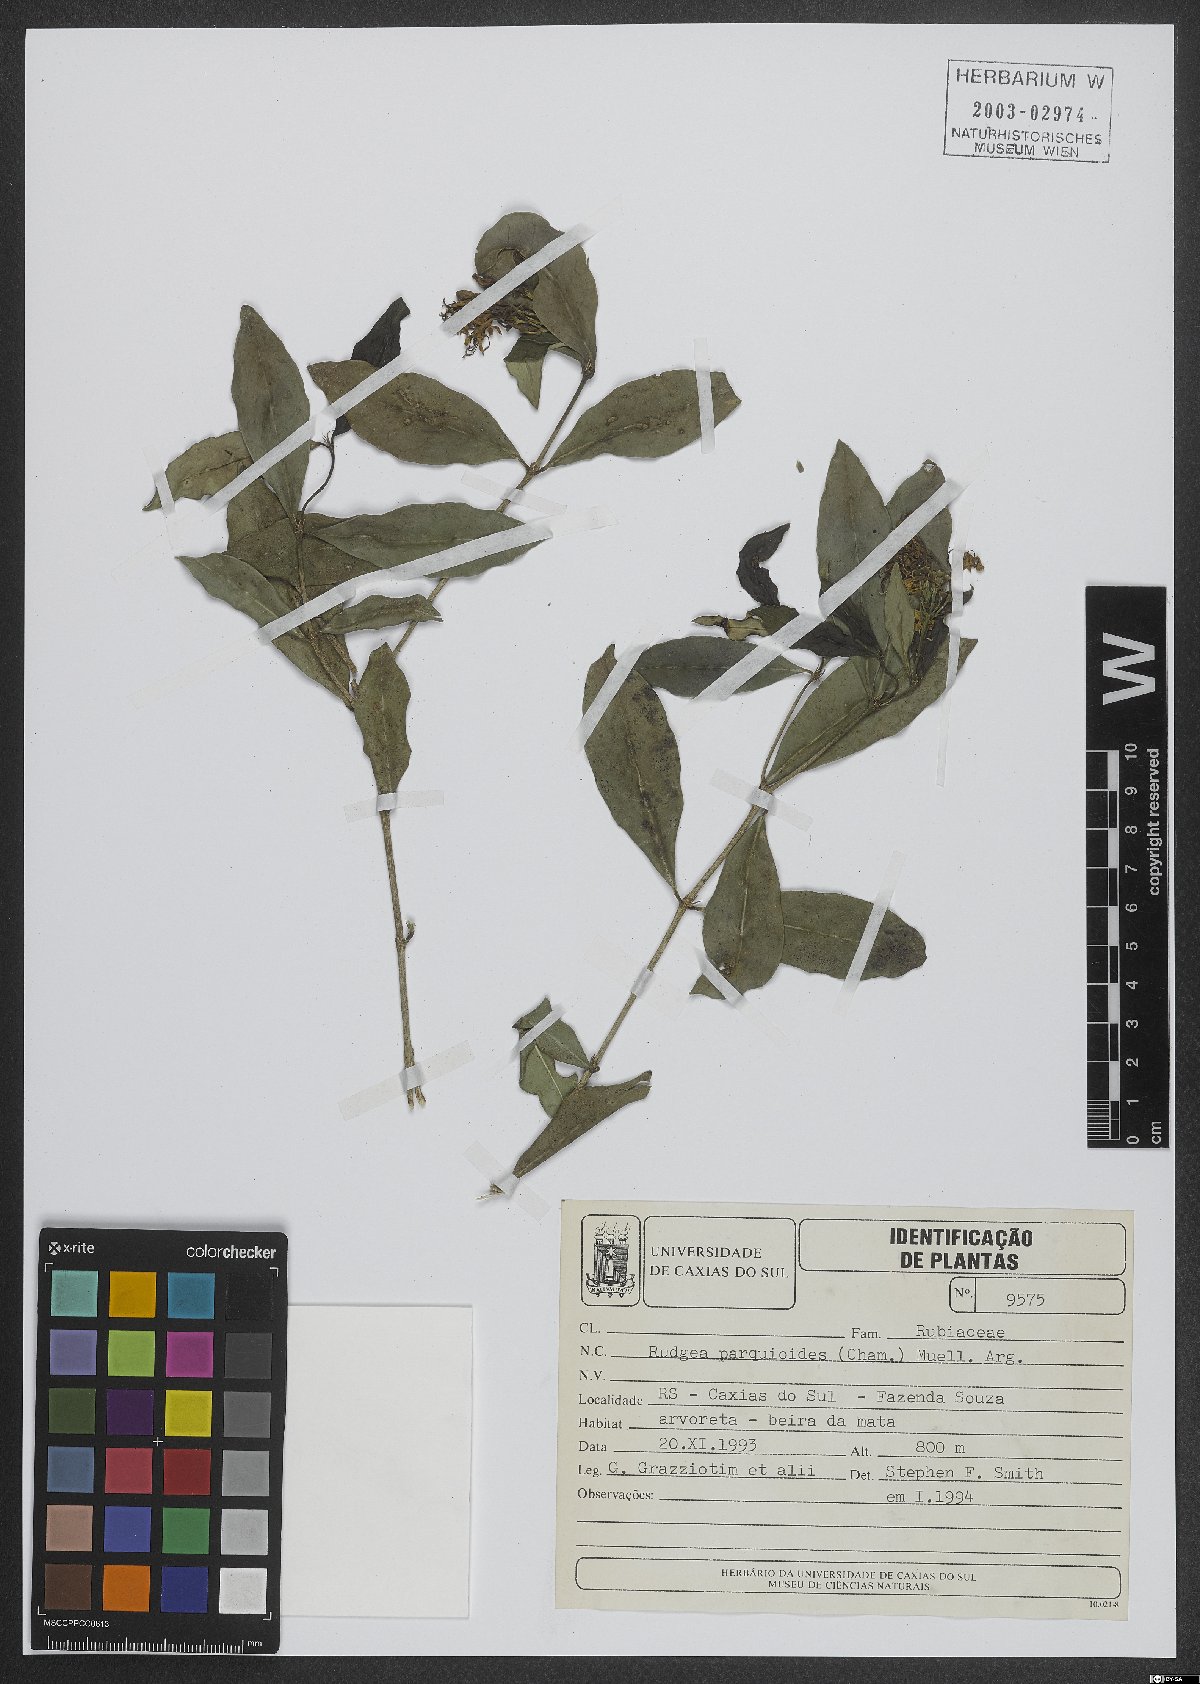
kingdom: Plantae
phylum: Tracheophyta
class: Magnoliopsida
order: Gentianales
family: Rubiaceae
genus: Rudgea
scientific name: Rudgea parquioides
